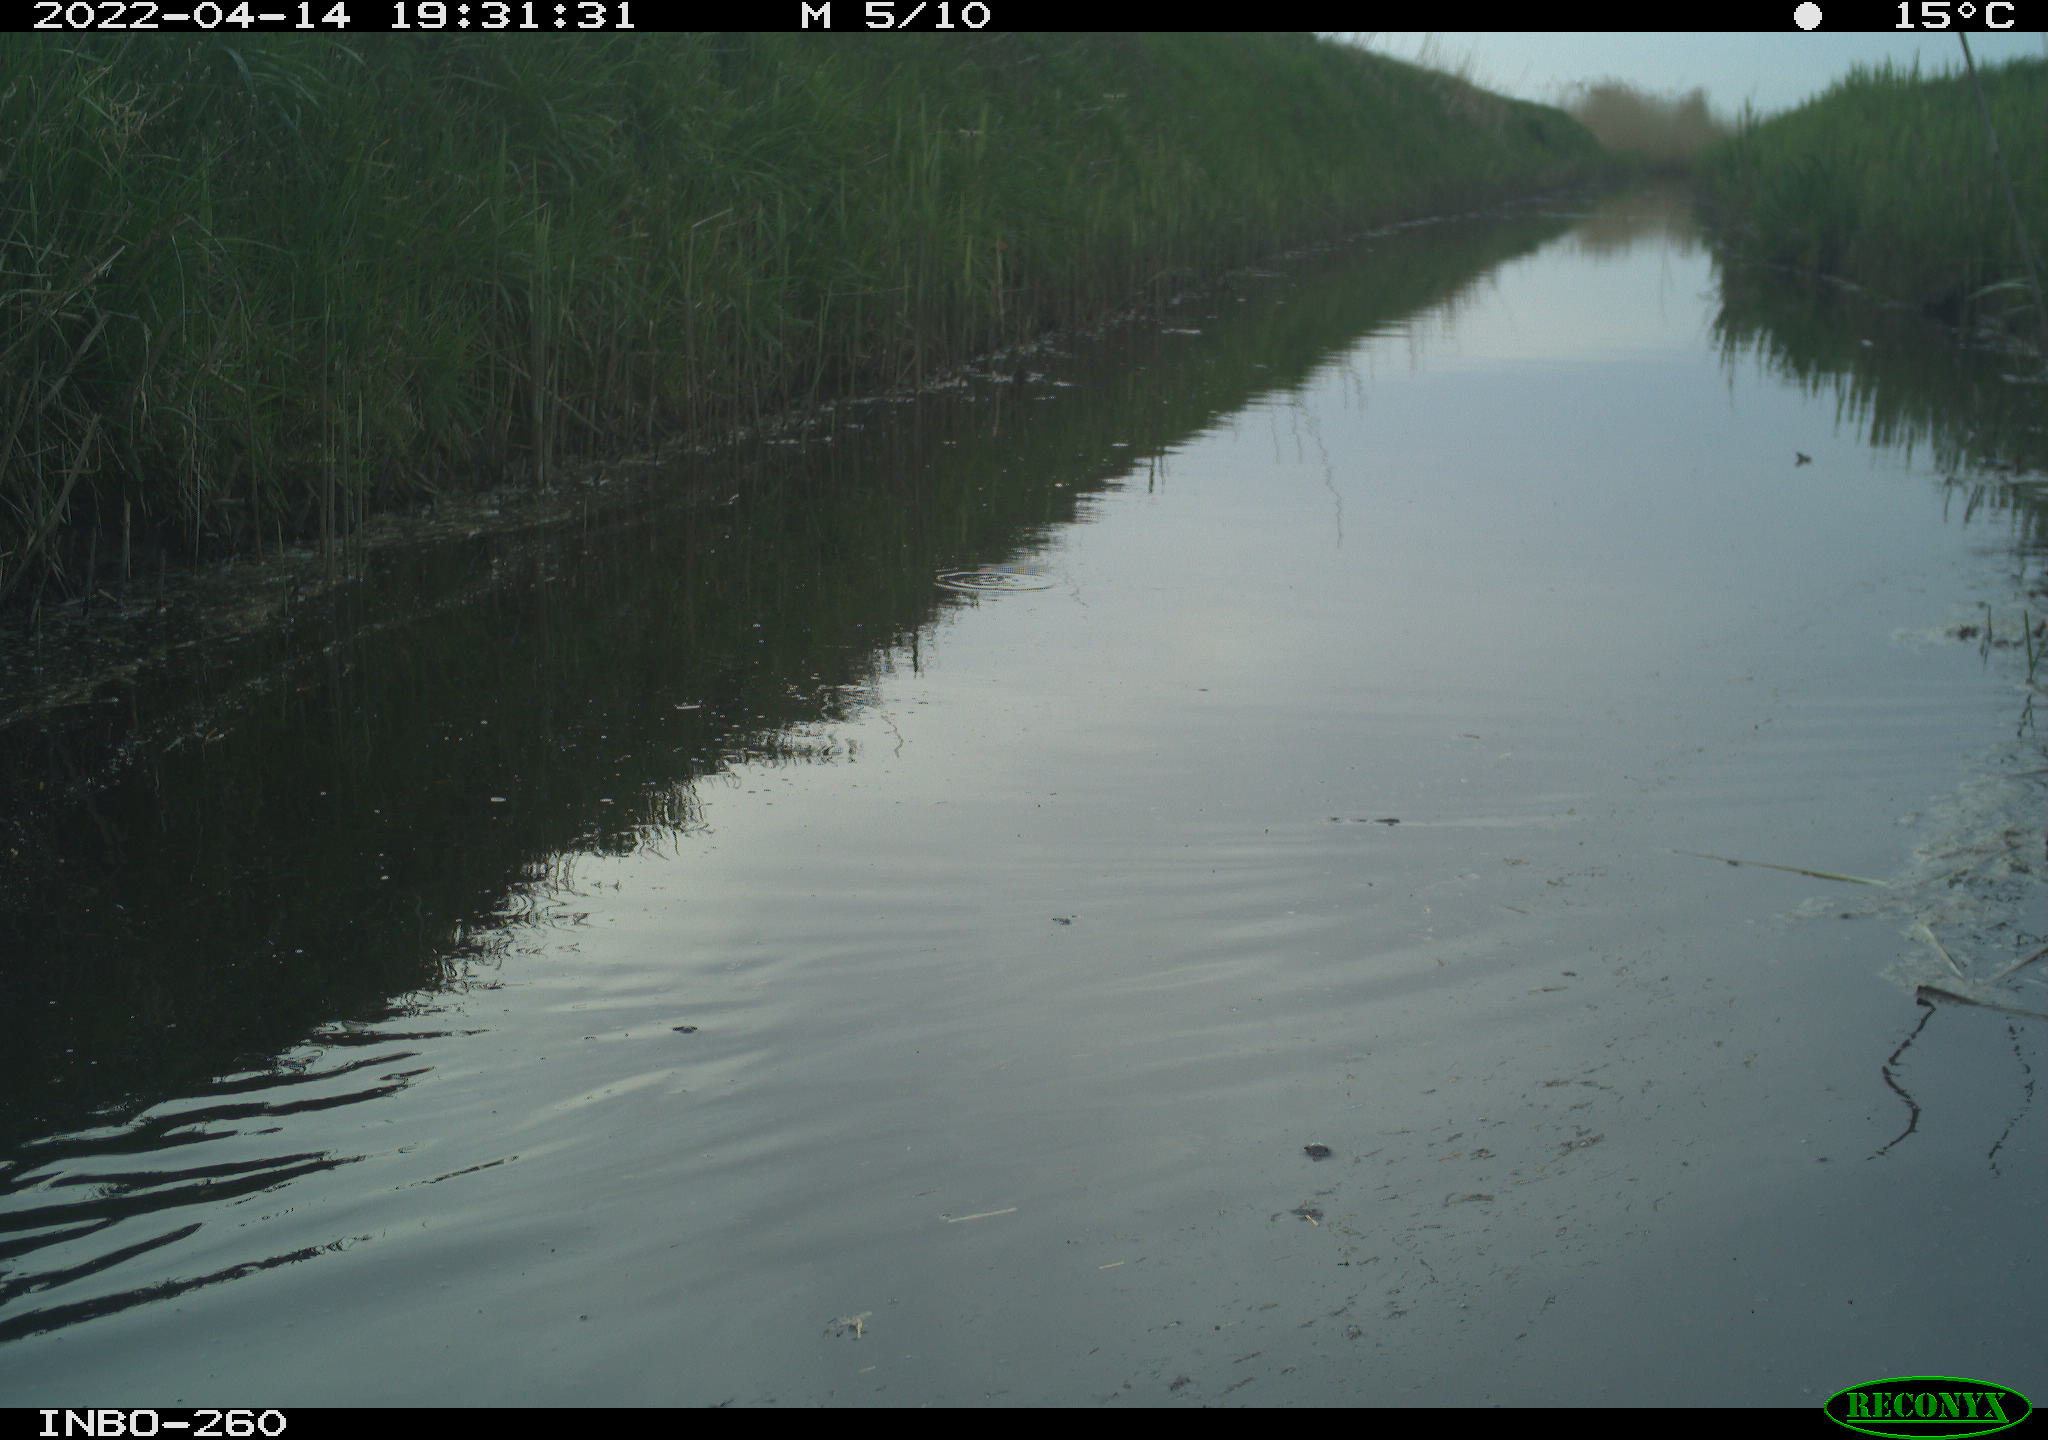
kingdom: Animalia
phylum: Chordata
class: Aves
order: Gruiformes
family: Rallidae
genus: Fulica
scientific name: Fulica atra
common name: Eurasian coot
